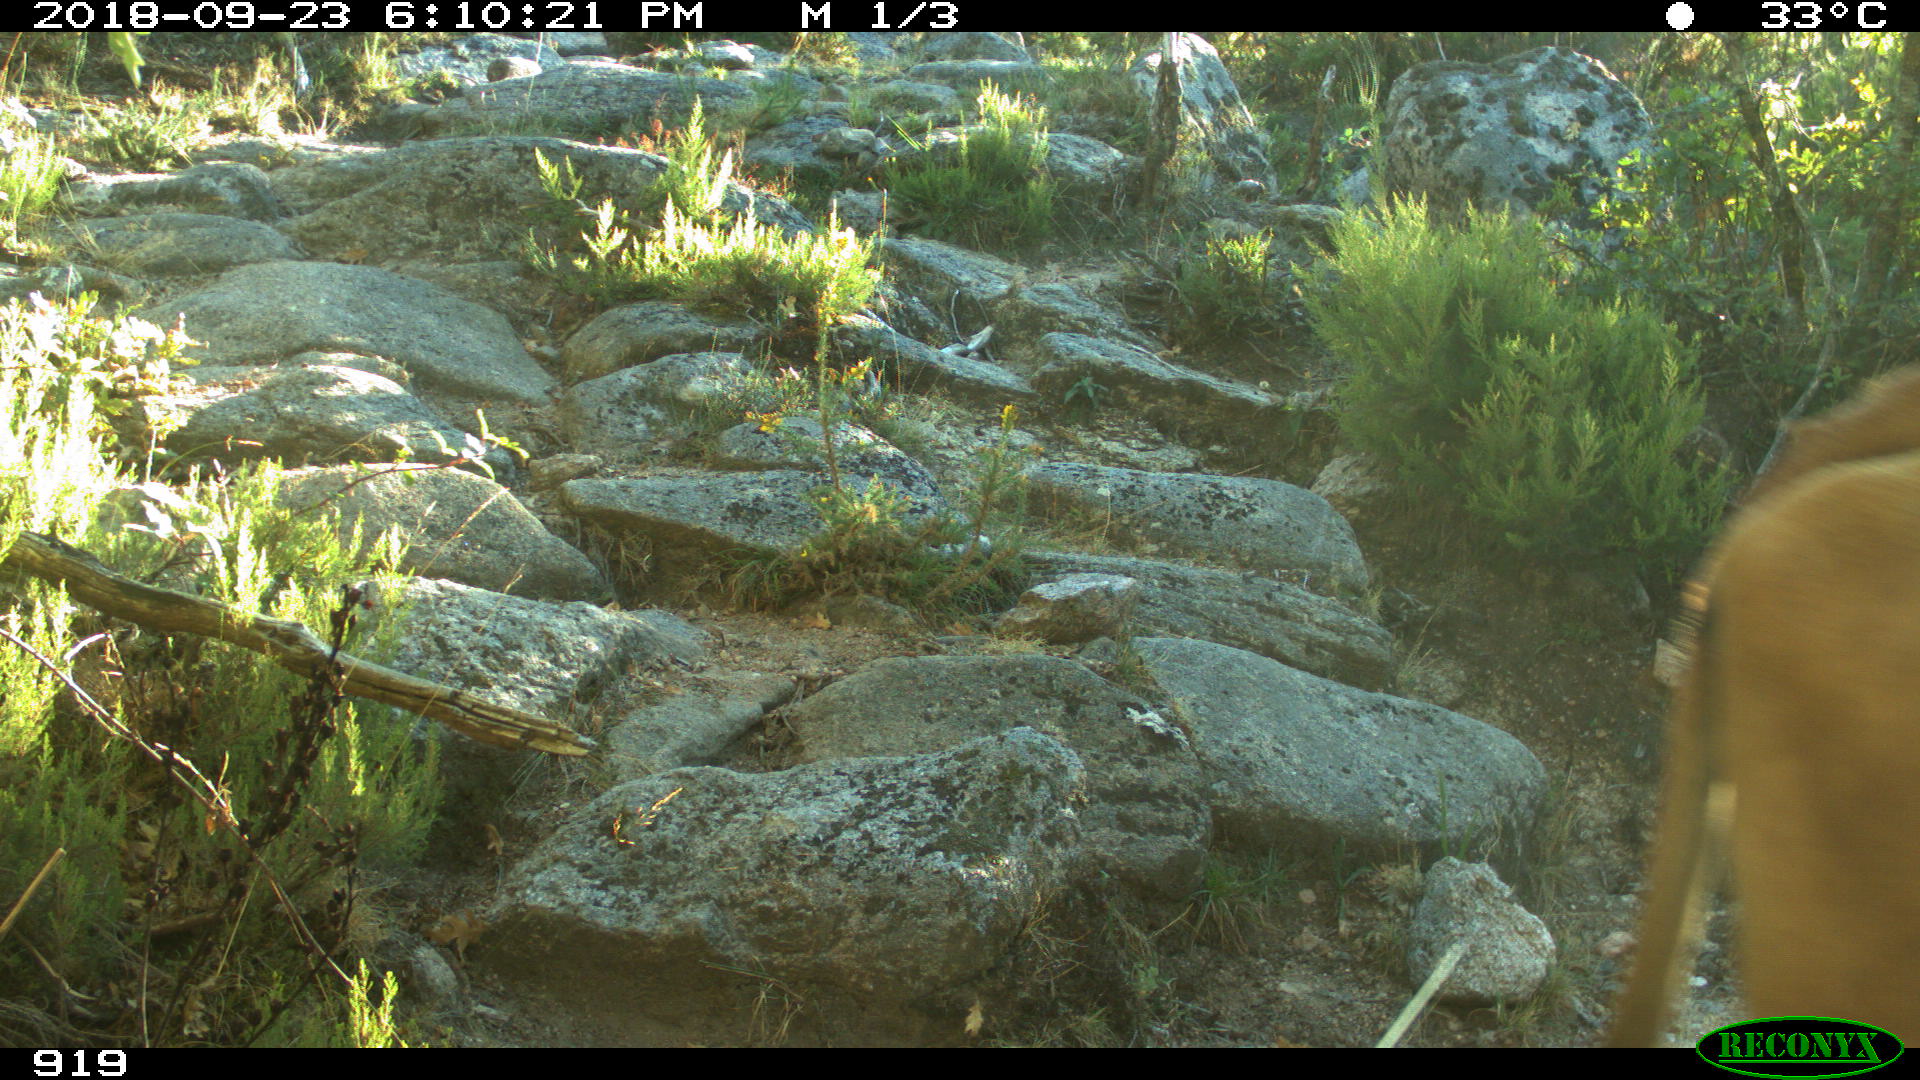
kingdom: Animalia
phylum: Chordata
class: Mammalia
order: Artiodactyla
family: Bovidae
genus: Bos
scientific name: Bos taurus
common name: Domesticated cattle
